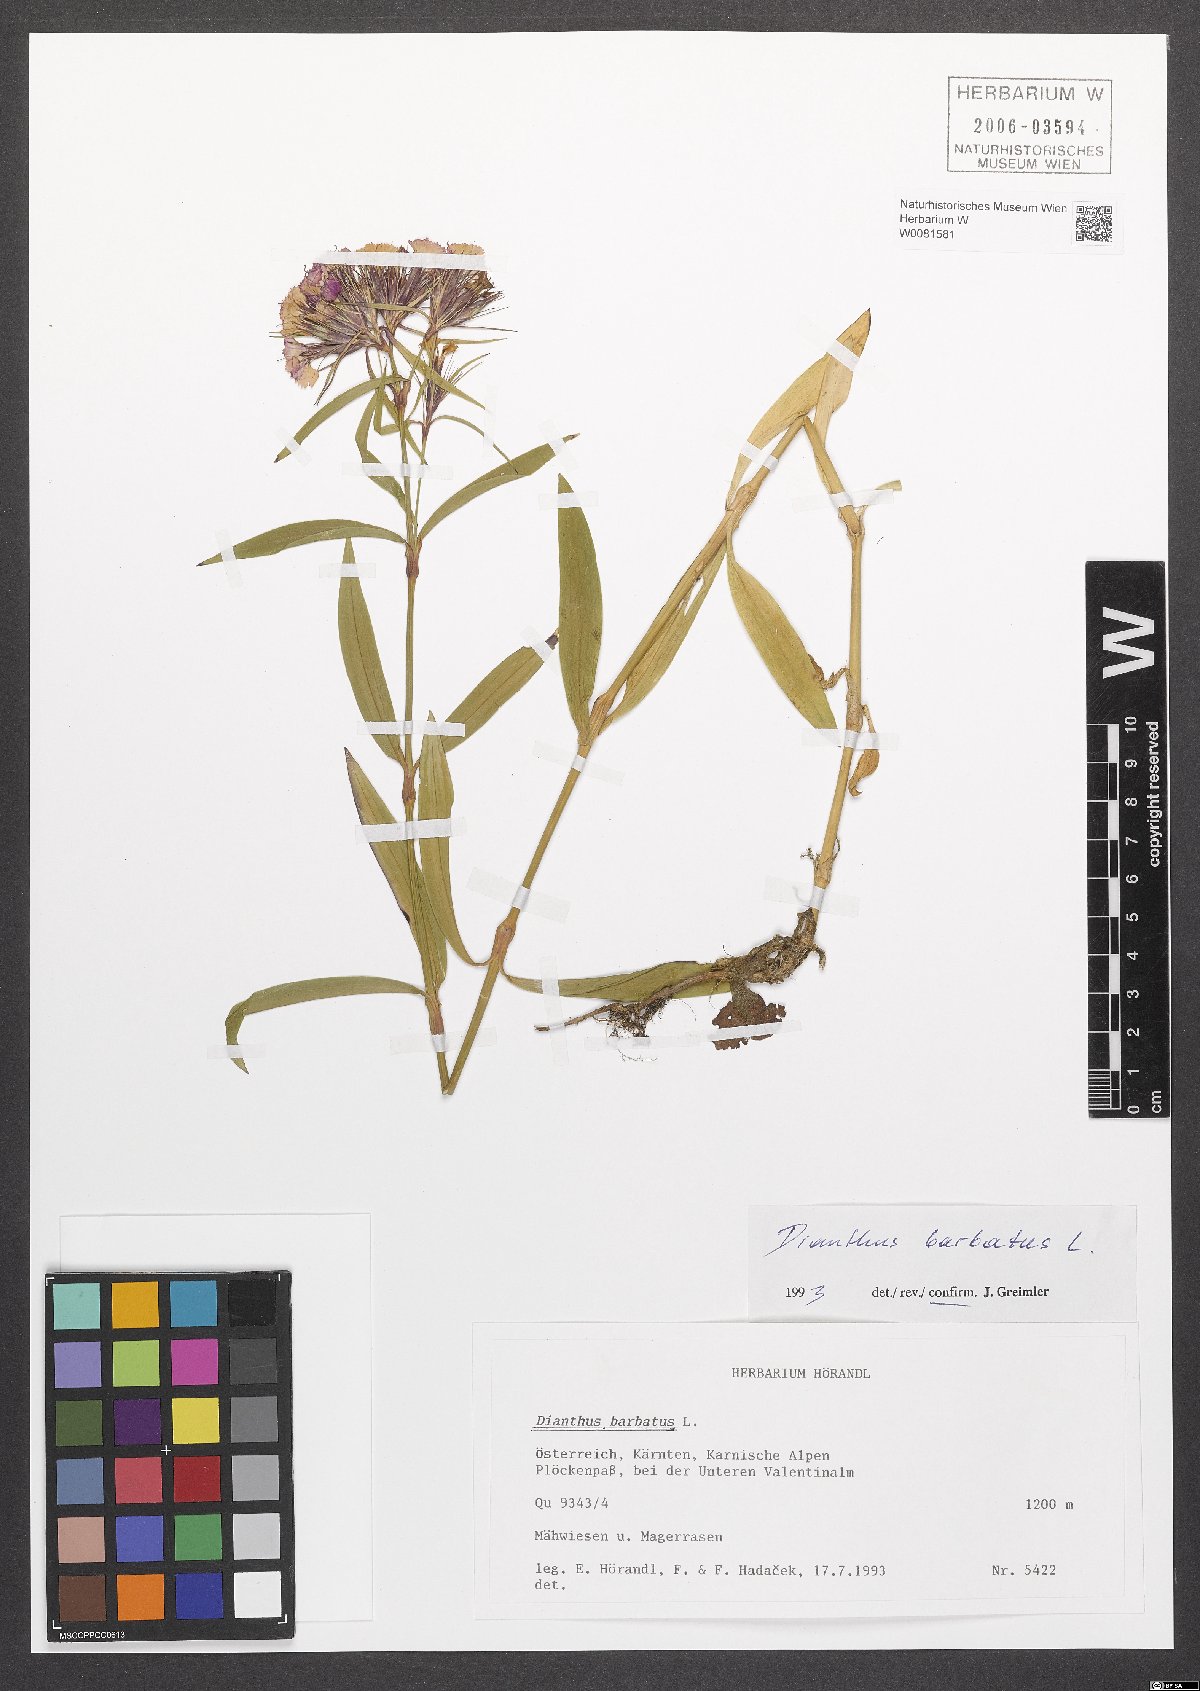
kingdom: Plantae
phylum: Tracheophyta
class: Magnoliopsida
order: Caryophyllales
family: Caryophyllaceae
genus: Dianthus
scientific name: Dianthus barbatus
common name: Sweet-william
